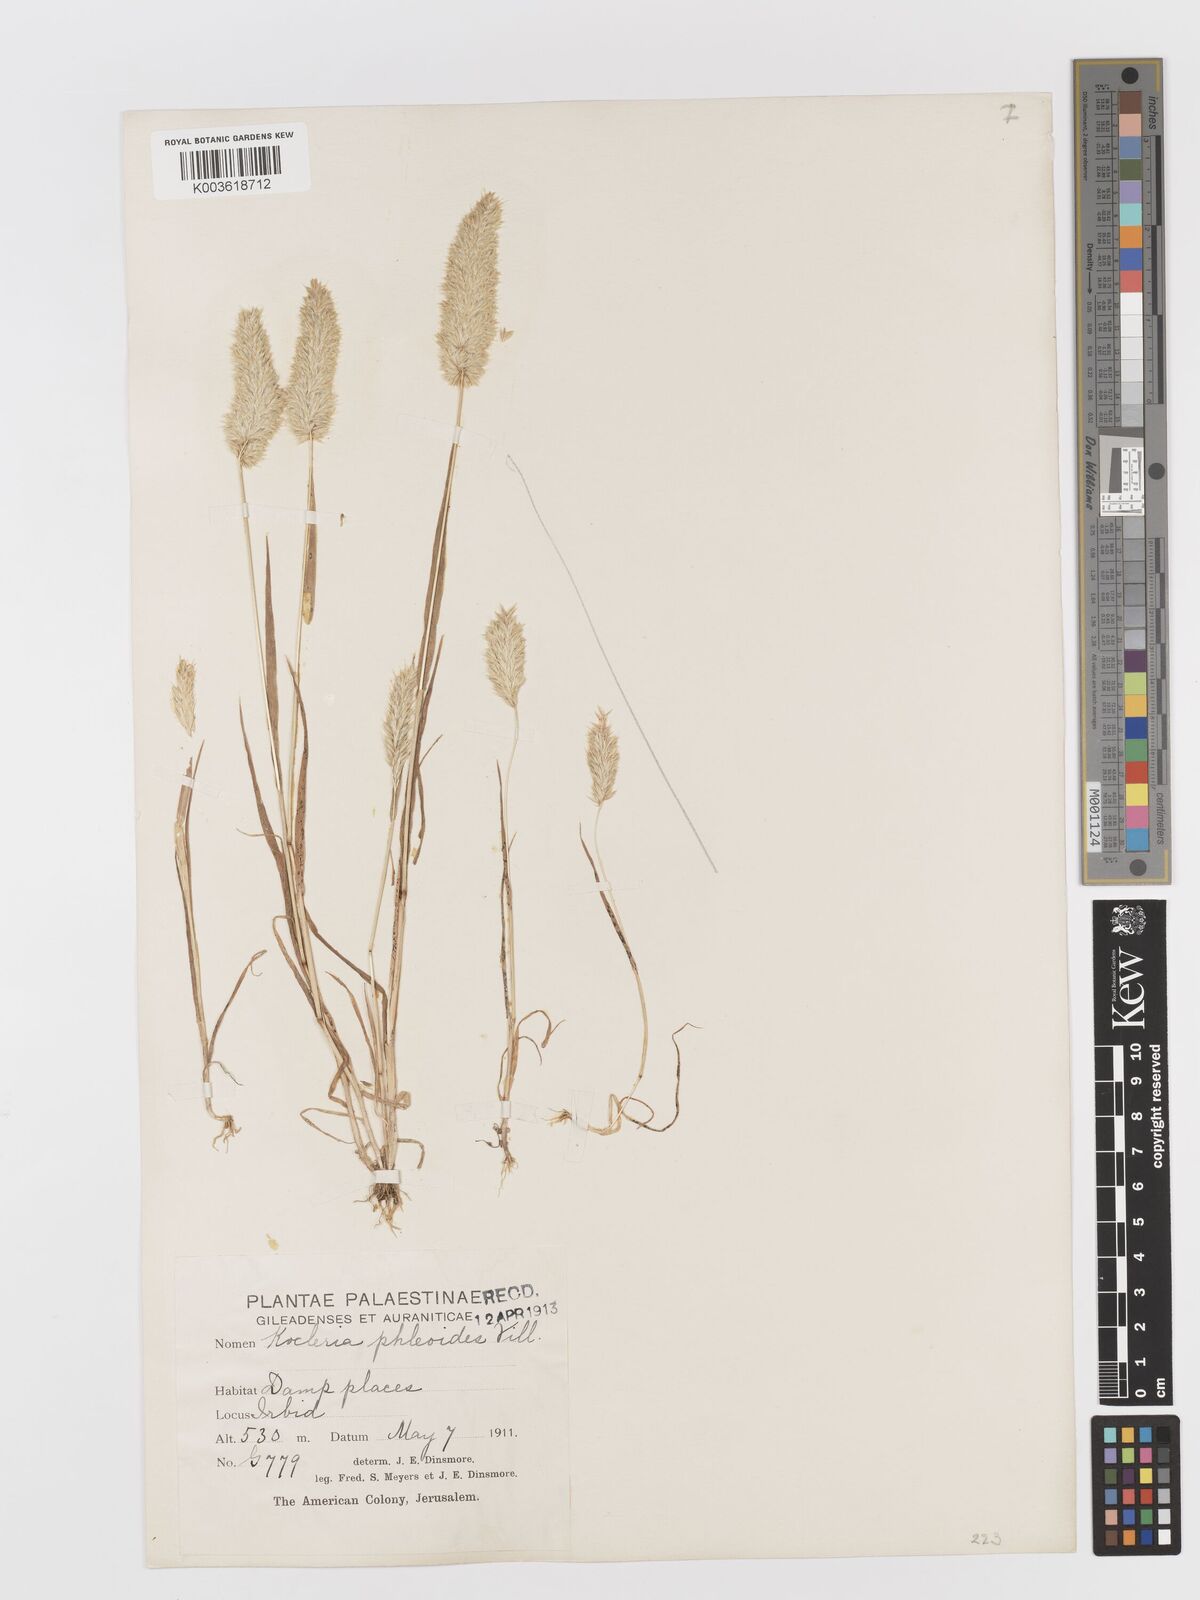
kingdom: Plantae
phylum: Tracheophyta
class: Liliopsida
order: Poales
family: Poaceae
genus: Rostraria
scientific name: Rostraria smyrnaea
